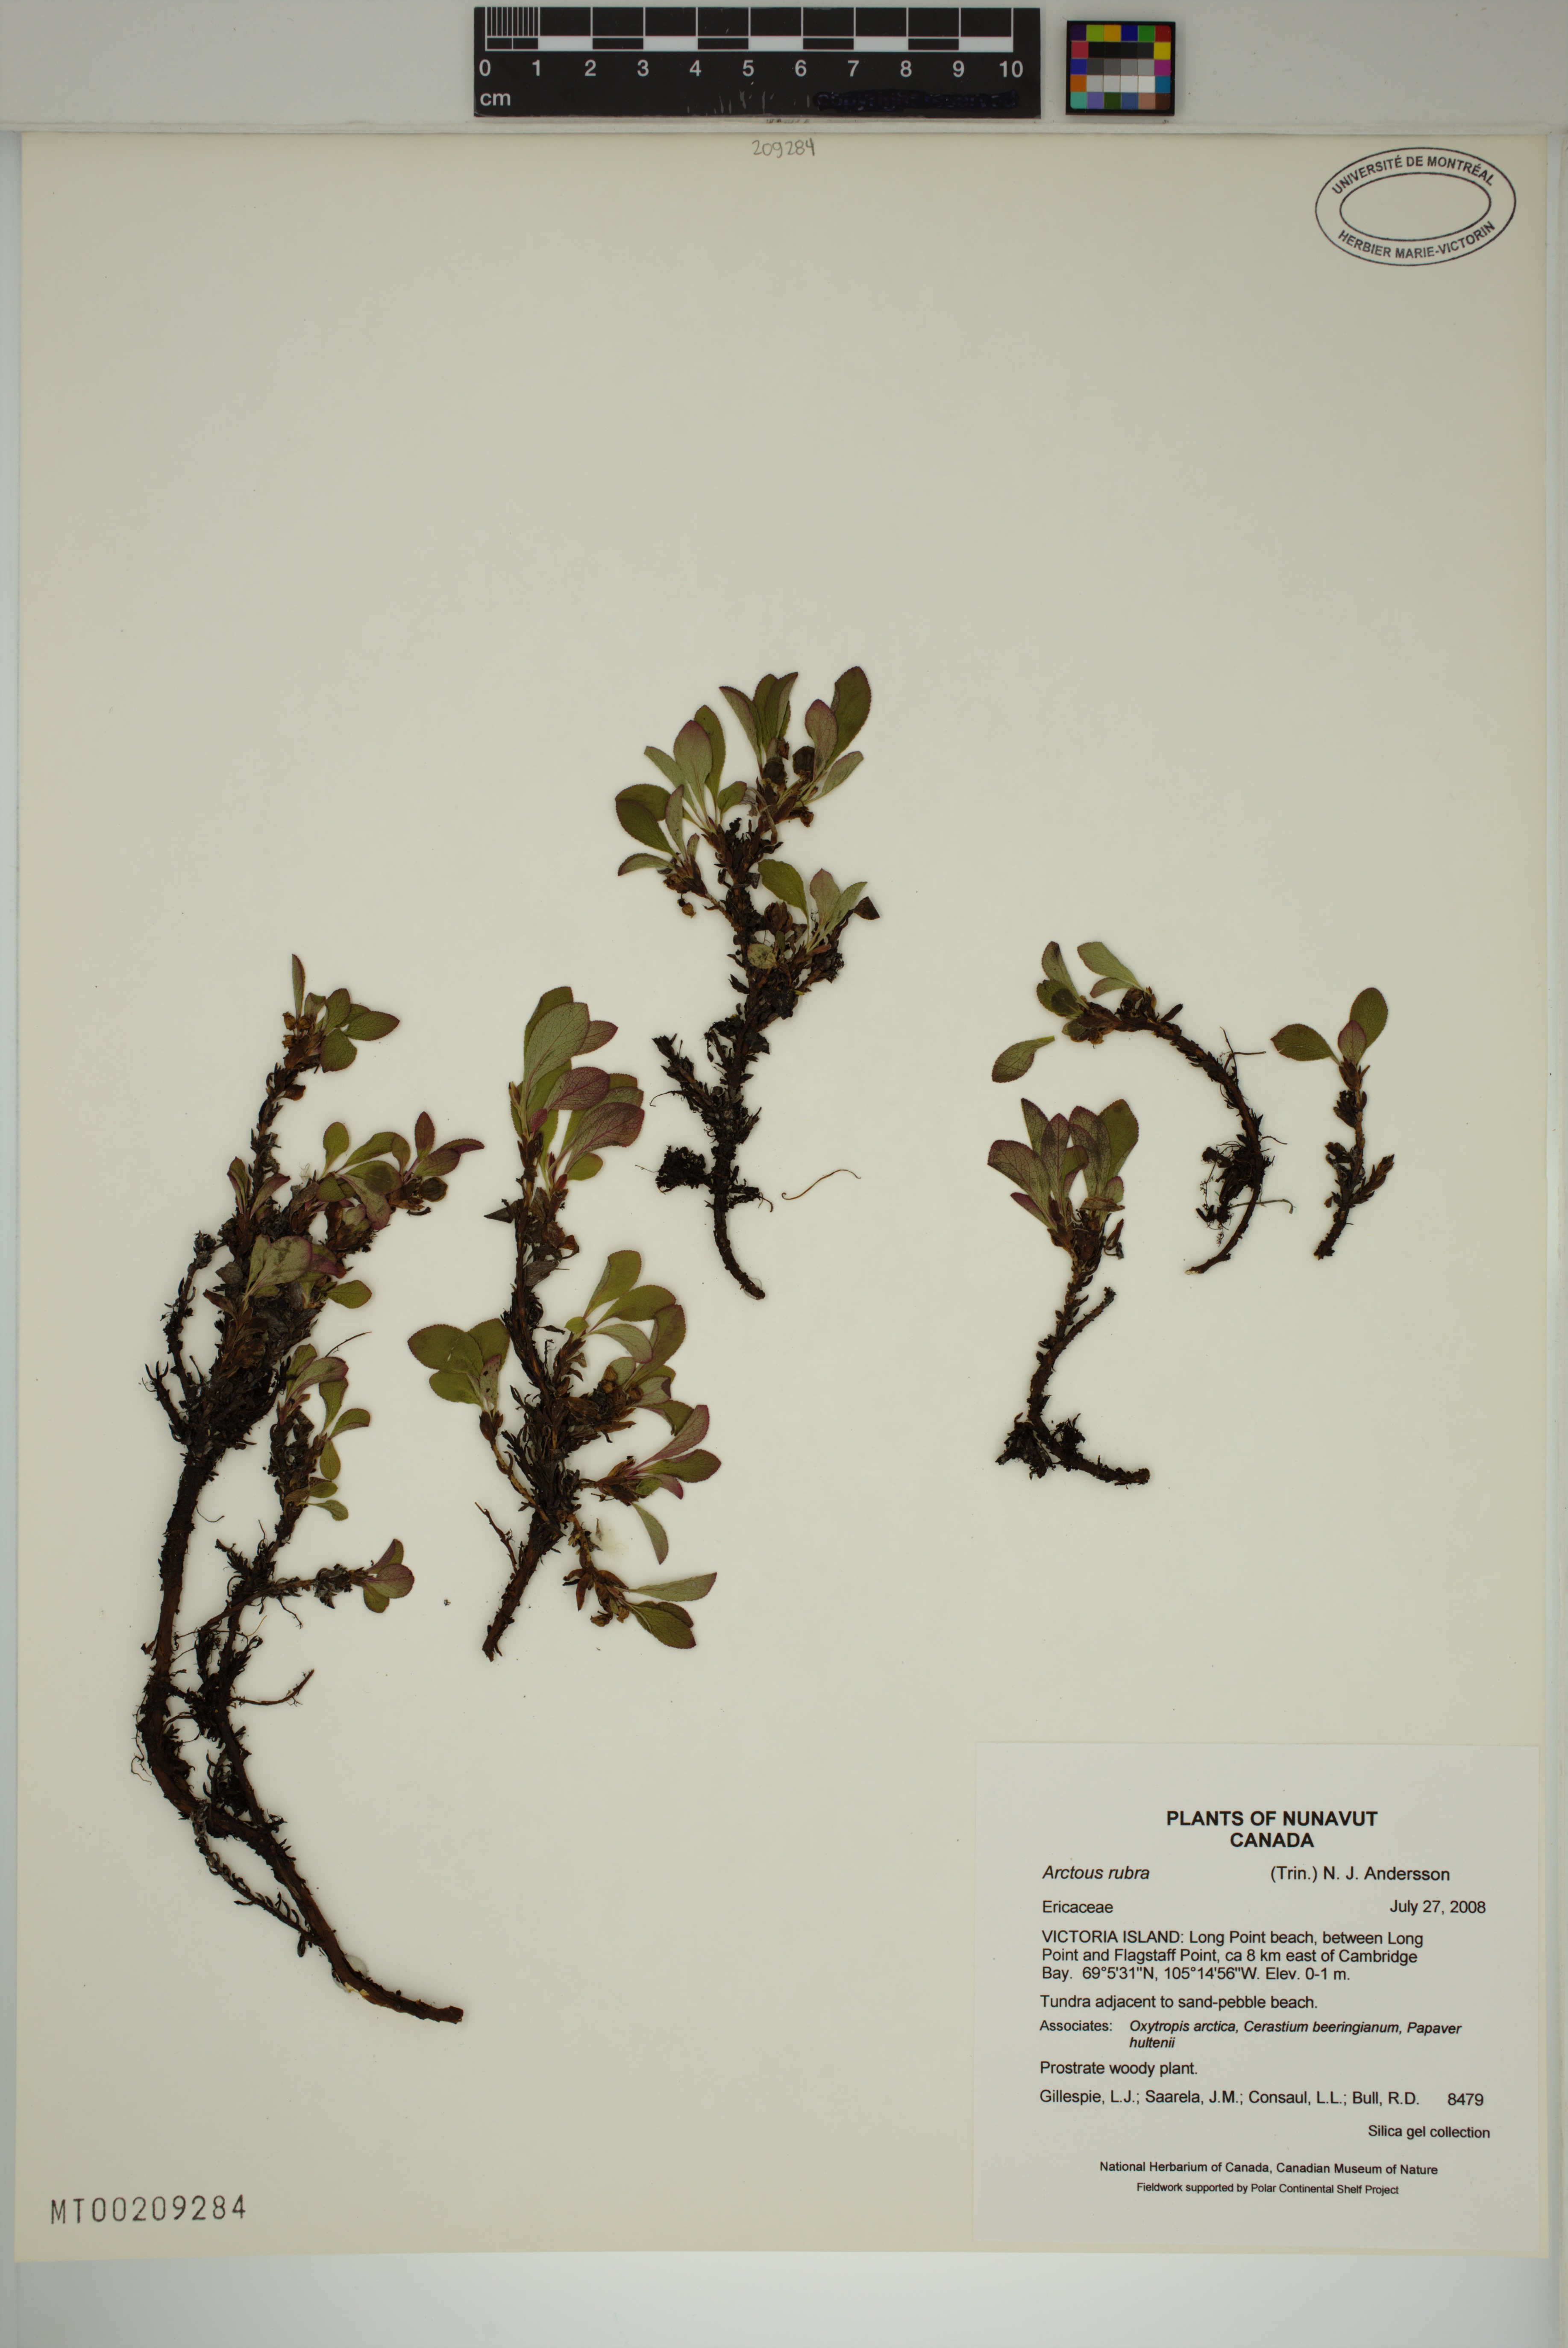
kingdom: Plantae
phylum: Tracheophyta
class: Magnoliopsida
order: Ericales
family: Ericaceae
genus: Arctostaphylos
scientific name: Arctostaphylos rubra
